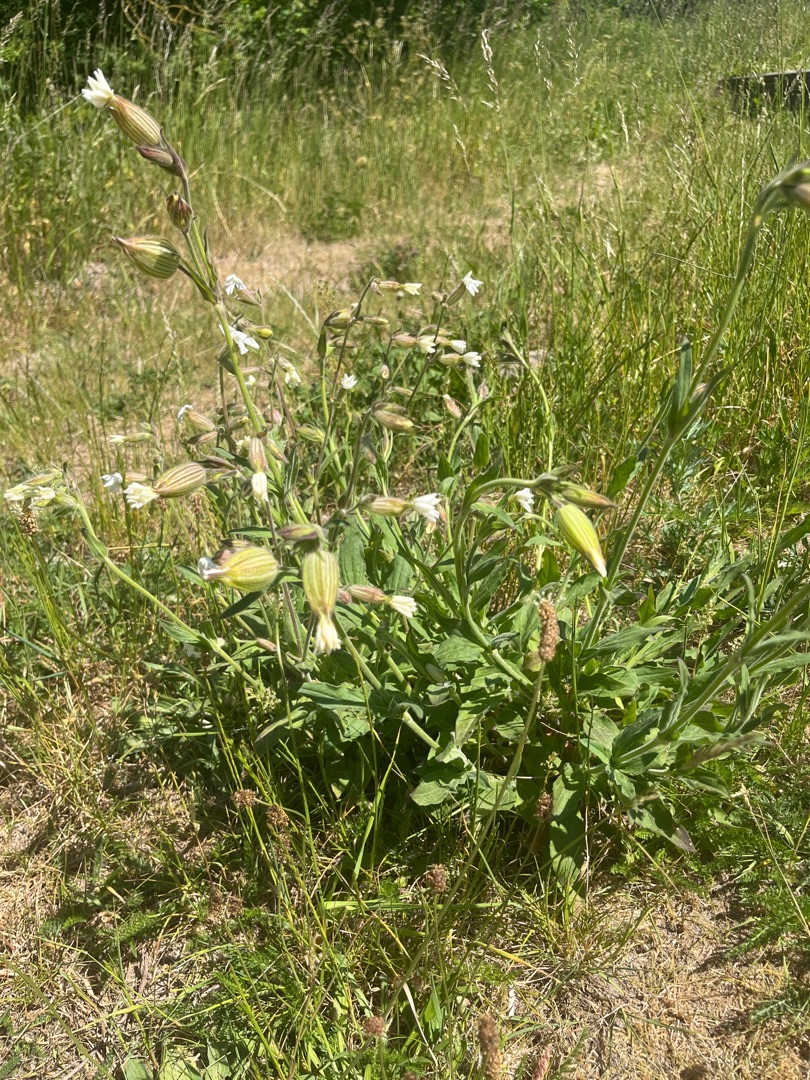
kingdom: Plantae
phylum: Tracheophyta
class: Magnoliopsida
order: Caryophyllales
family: Caryophyllaceae
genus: Silene
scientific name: Silene latifolia
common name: Aftenpragtstjerne
